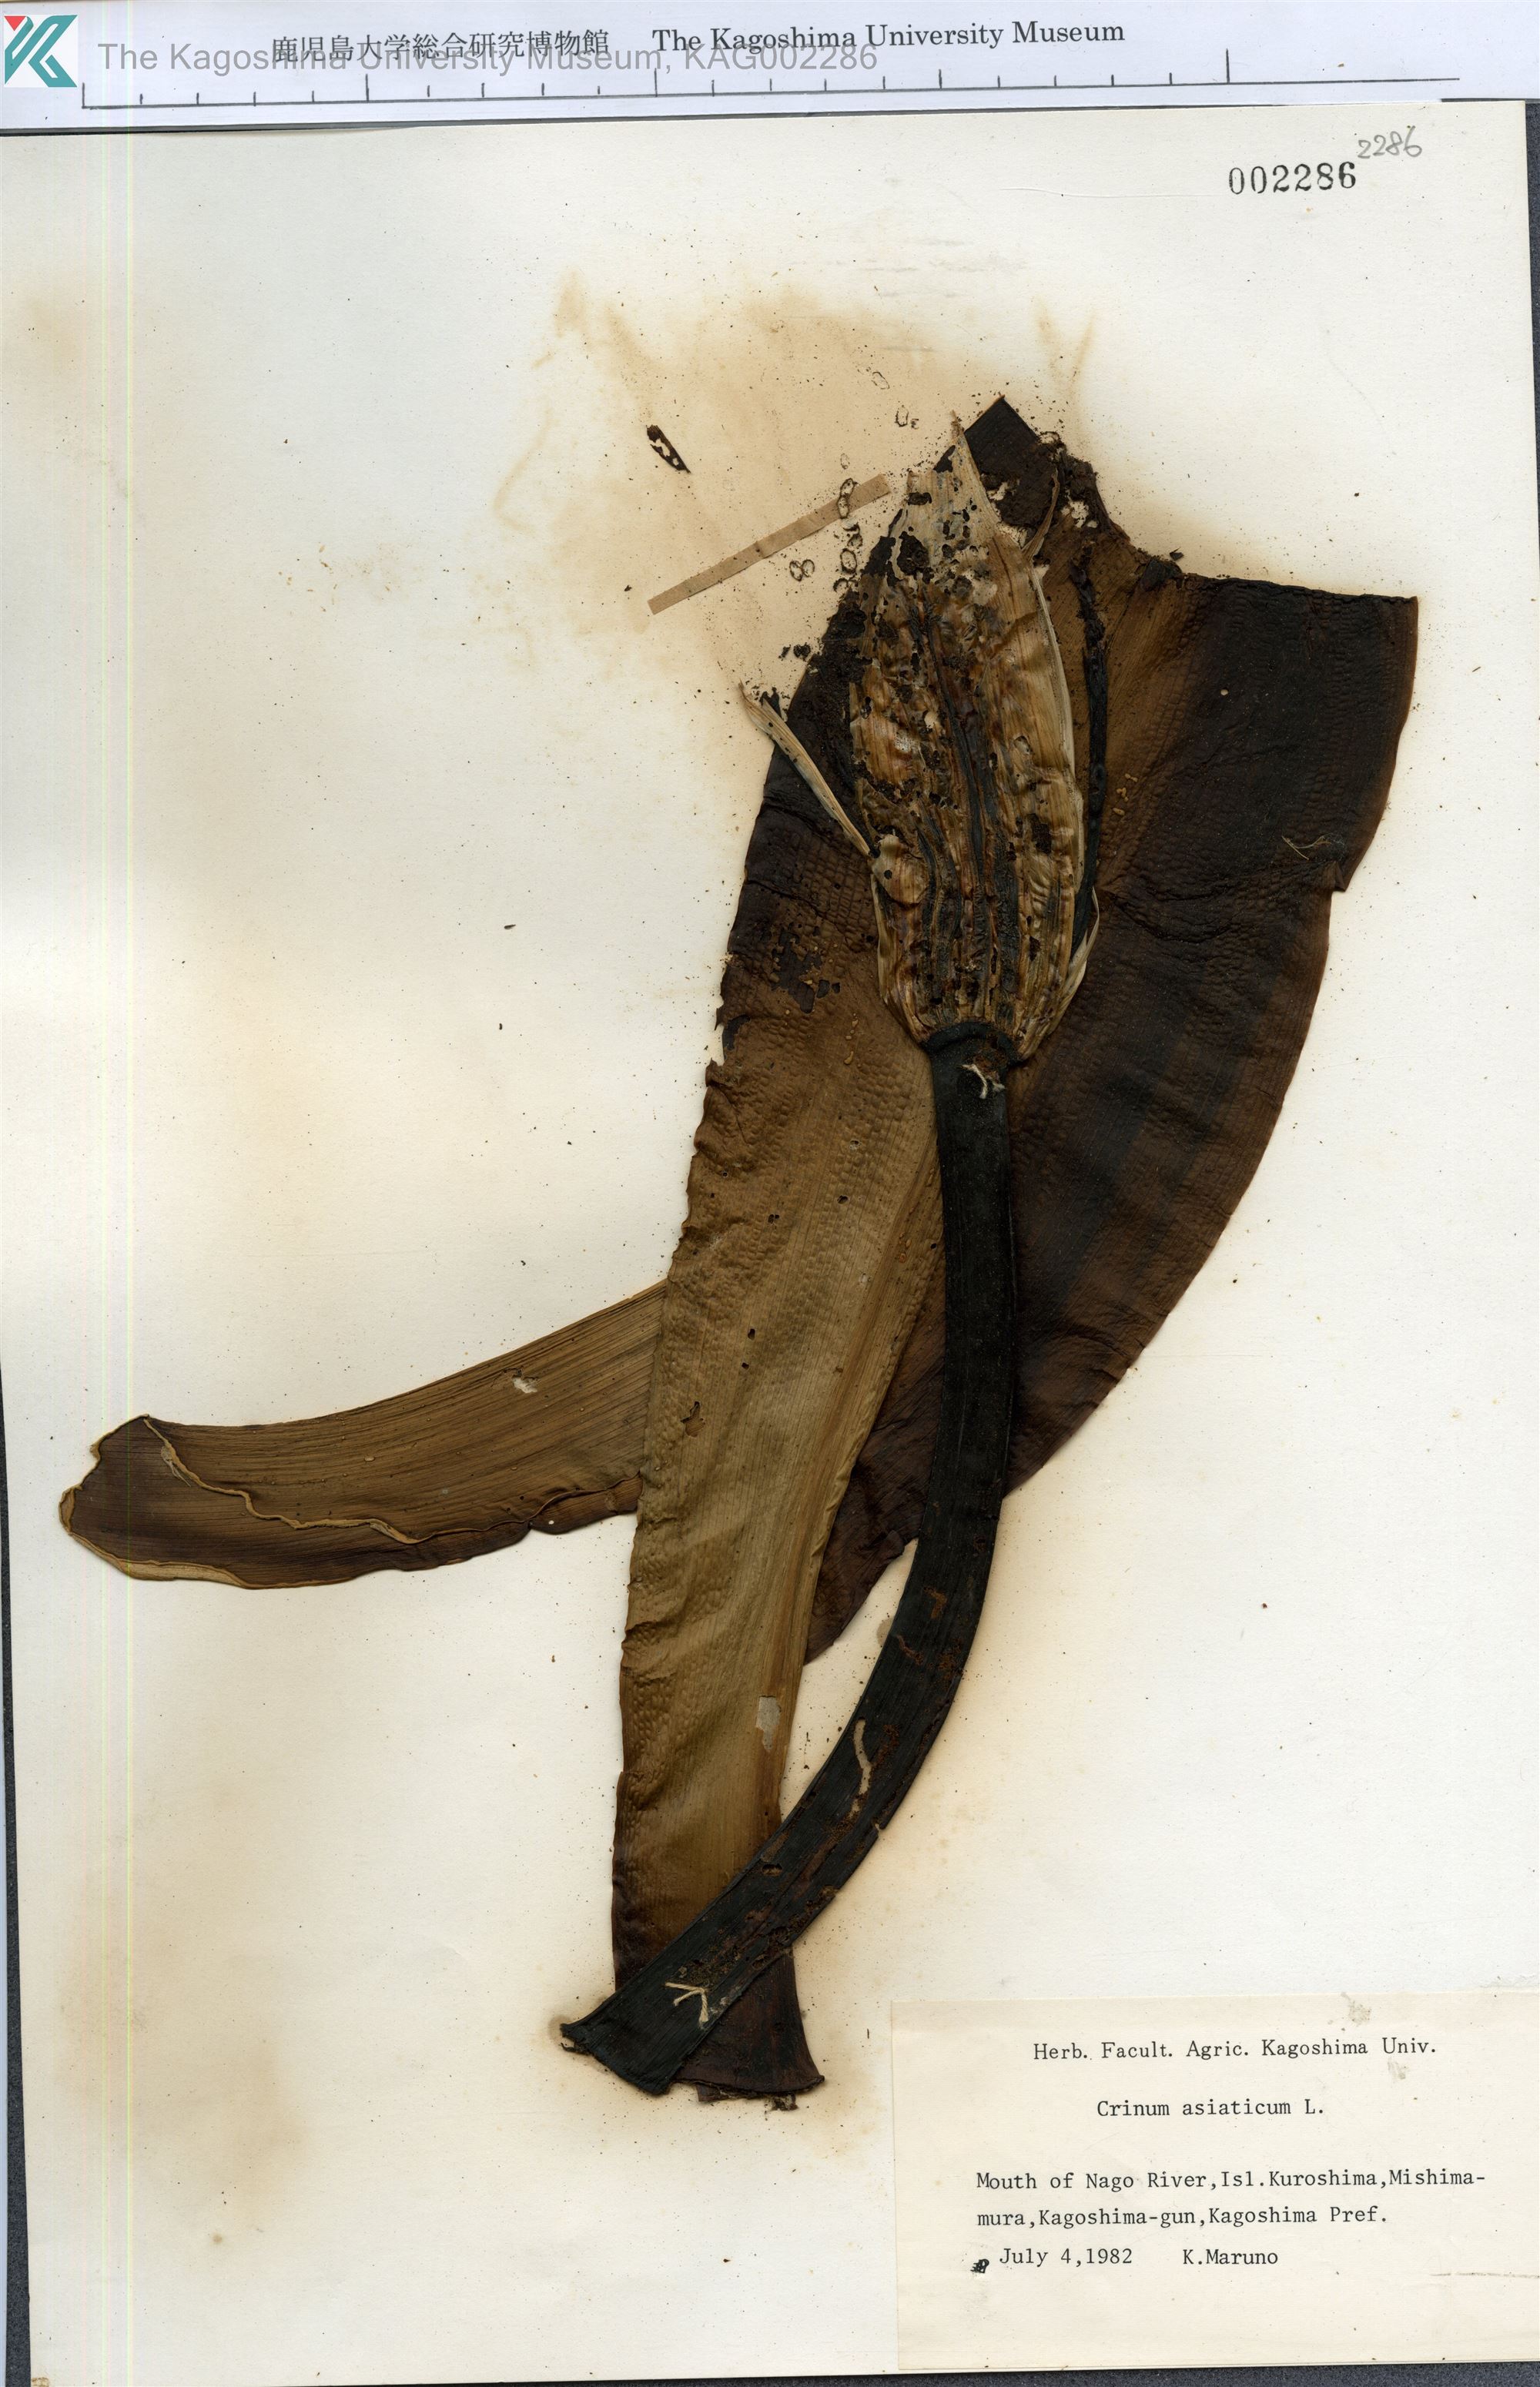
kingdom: Plantae
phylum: Tracheophyta
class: Liliopsida
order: Asparagales
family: Amaryllidaceae
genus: Crinum
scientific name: Crinum asiaticum
